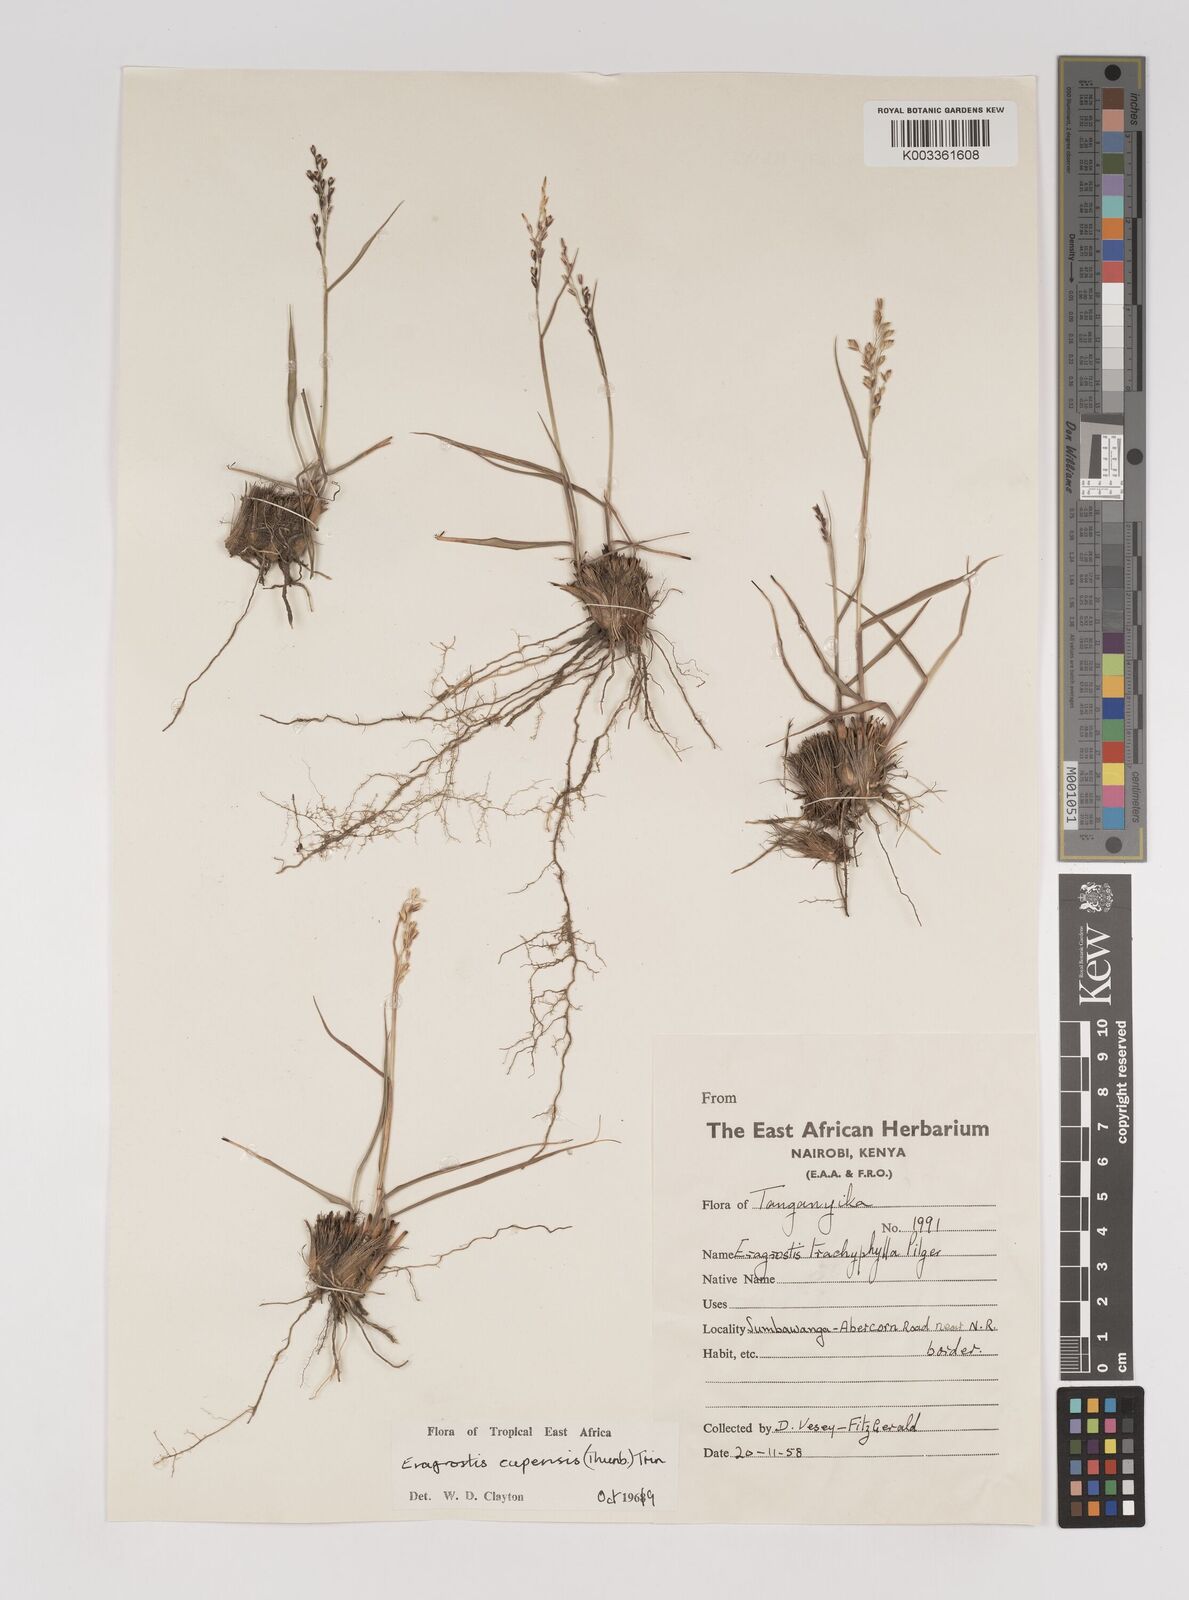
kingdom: Plantae
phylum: Tracheophyta
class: Liliopsida
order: Poales
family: Poaceae
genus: Eragrostis
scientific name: Eragrostis capensis
